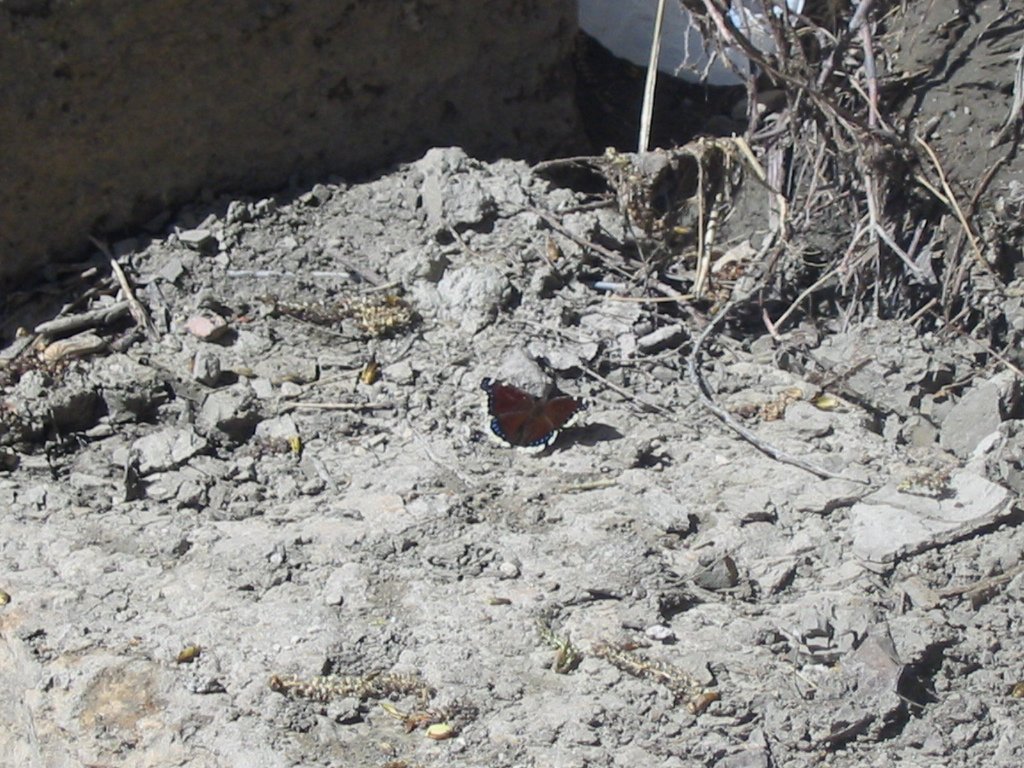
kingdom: Animalia
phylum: Arthropoda
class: Insecta
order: Lepidoptera
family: Nymphalidae
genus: Nymphalis
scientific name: Nymphalis antiopa
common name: Mourning Cloak
